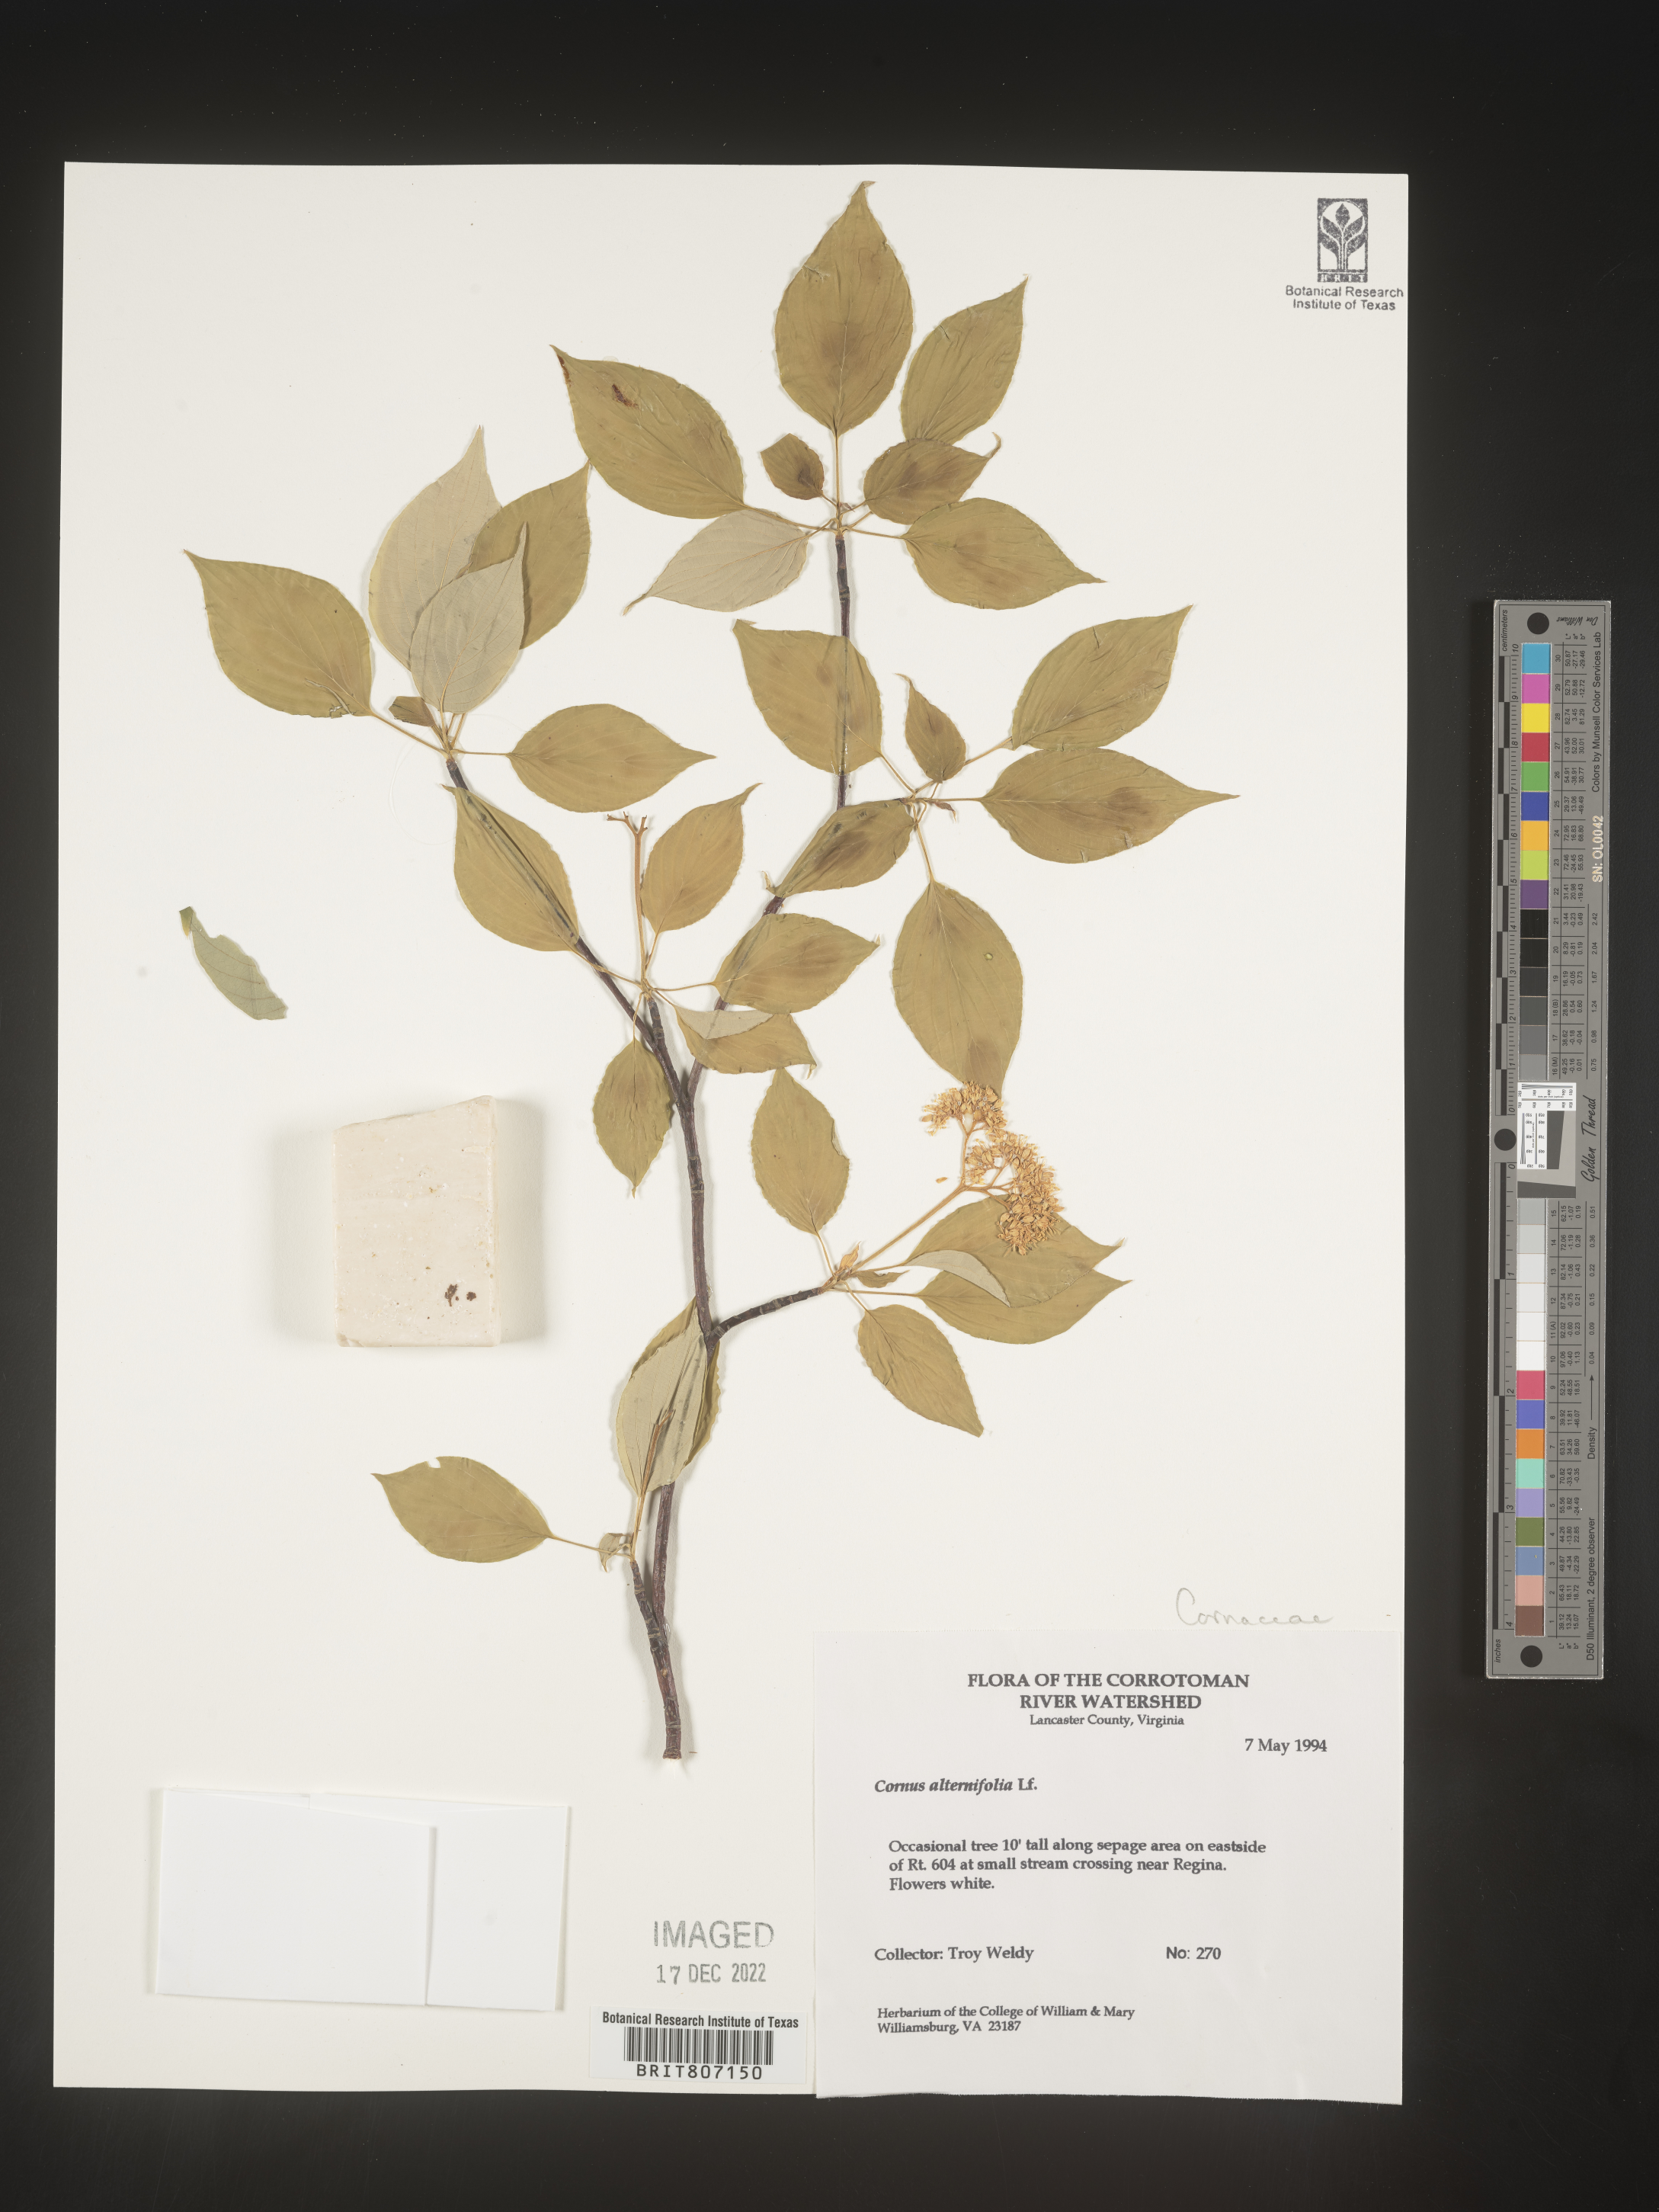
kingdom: Plantae
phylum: Tracheophyta
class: Magnoliopsida
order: Cornales
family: Cornaceae
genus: Cornus
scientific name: Cornus alternifolia
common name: Pagoda dogwood
